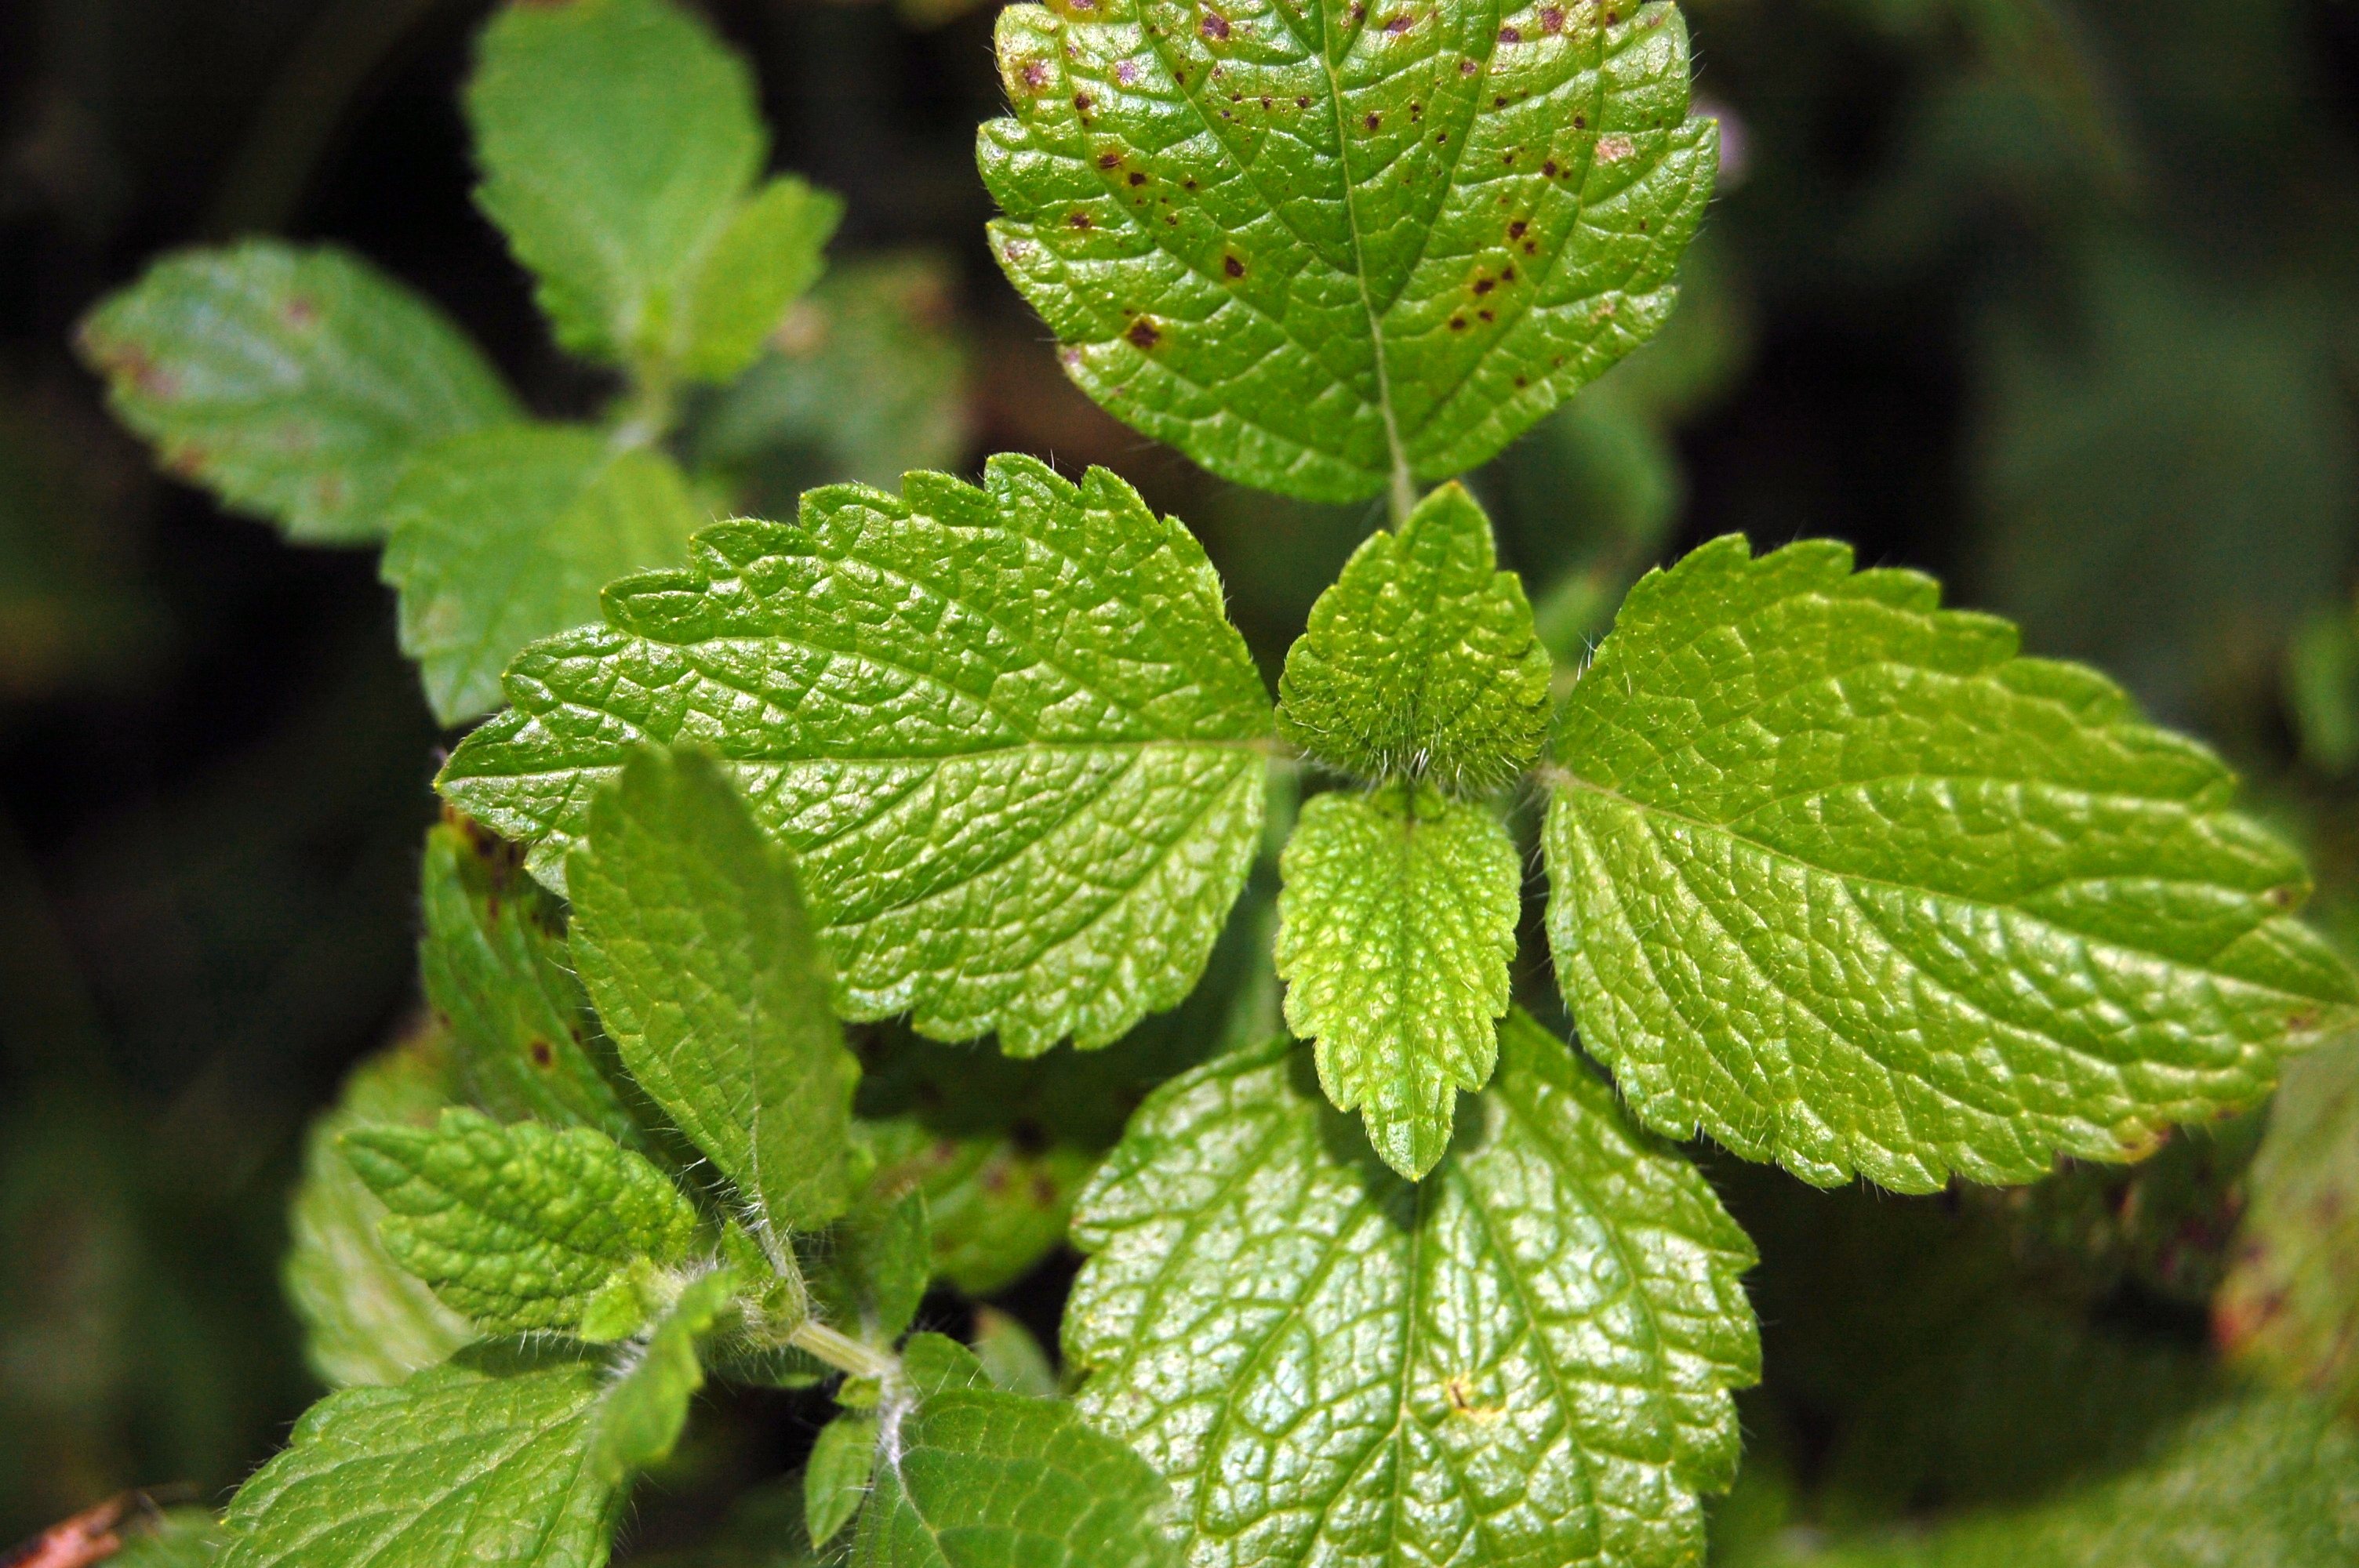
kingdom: Plantae
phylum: Tracheophyta
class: Magnoliopsida
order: Lamiales
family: Lamiaceae
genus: Melissa
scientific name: Melissa officinalis
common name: Balm
